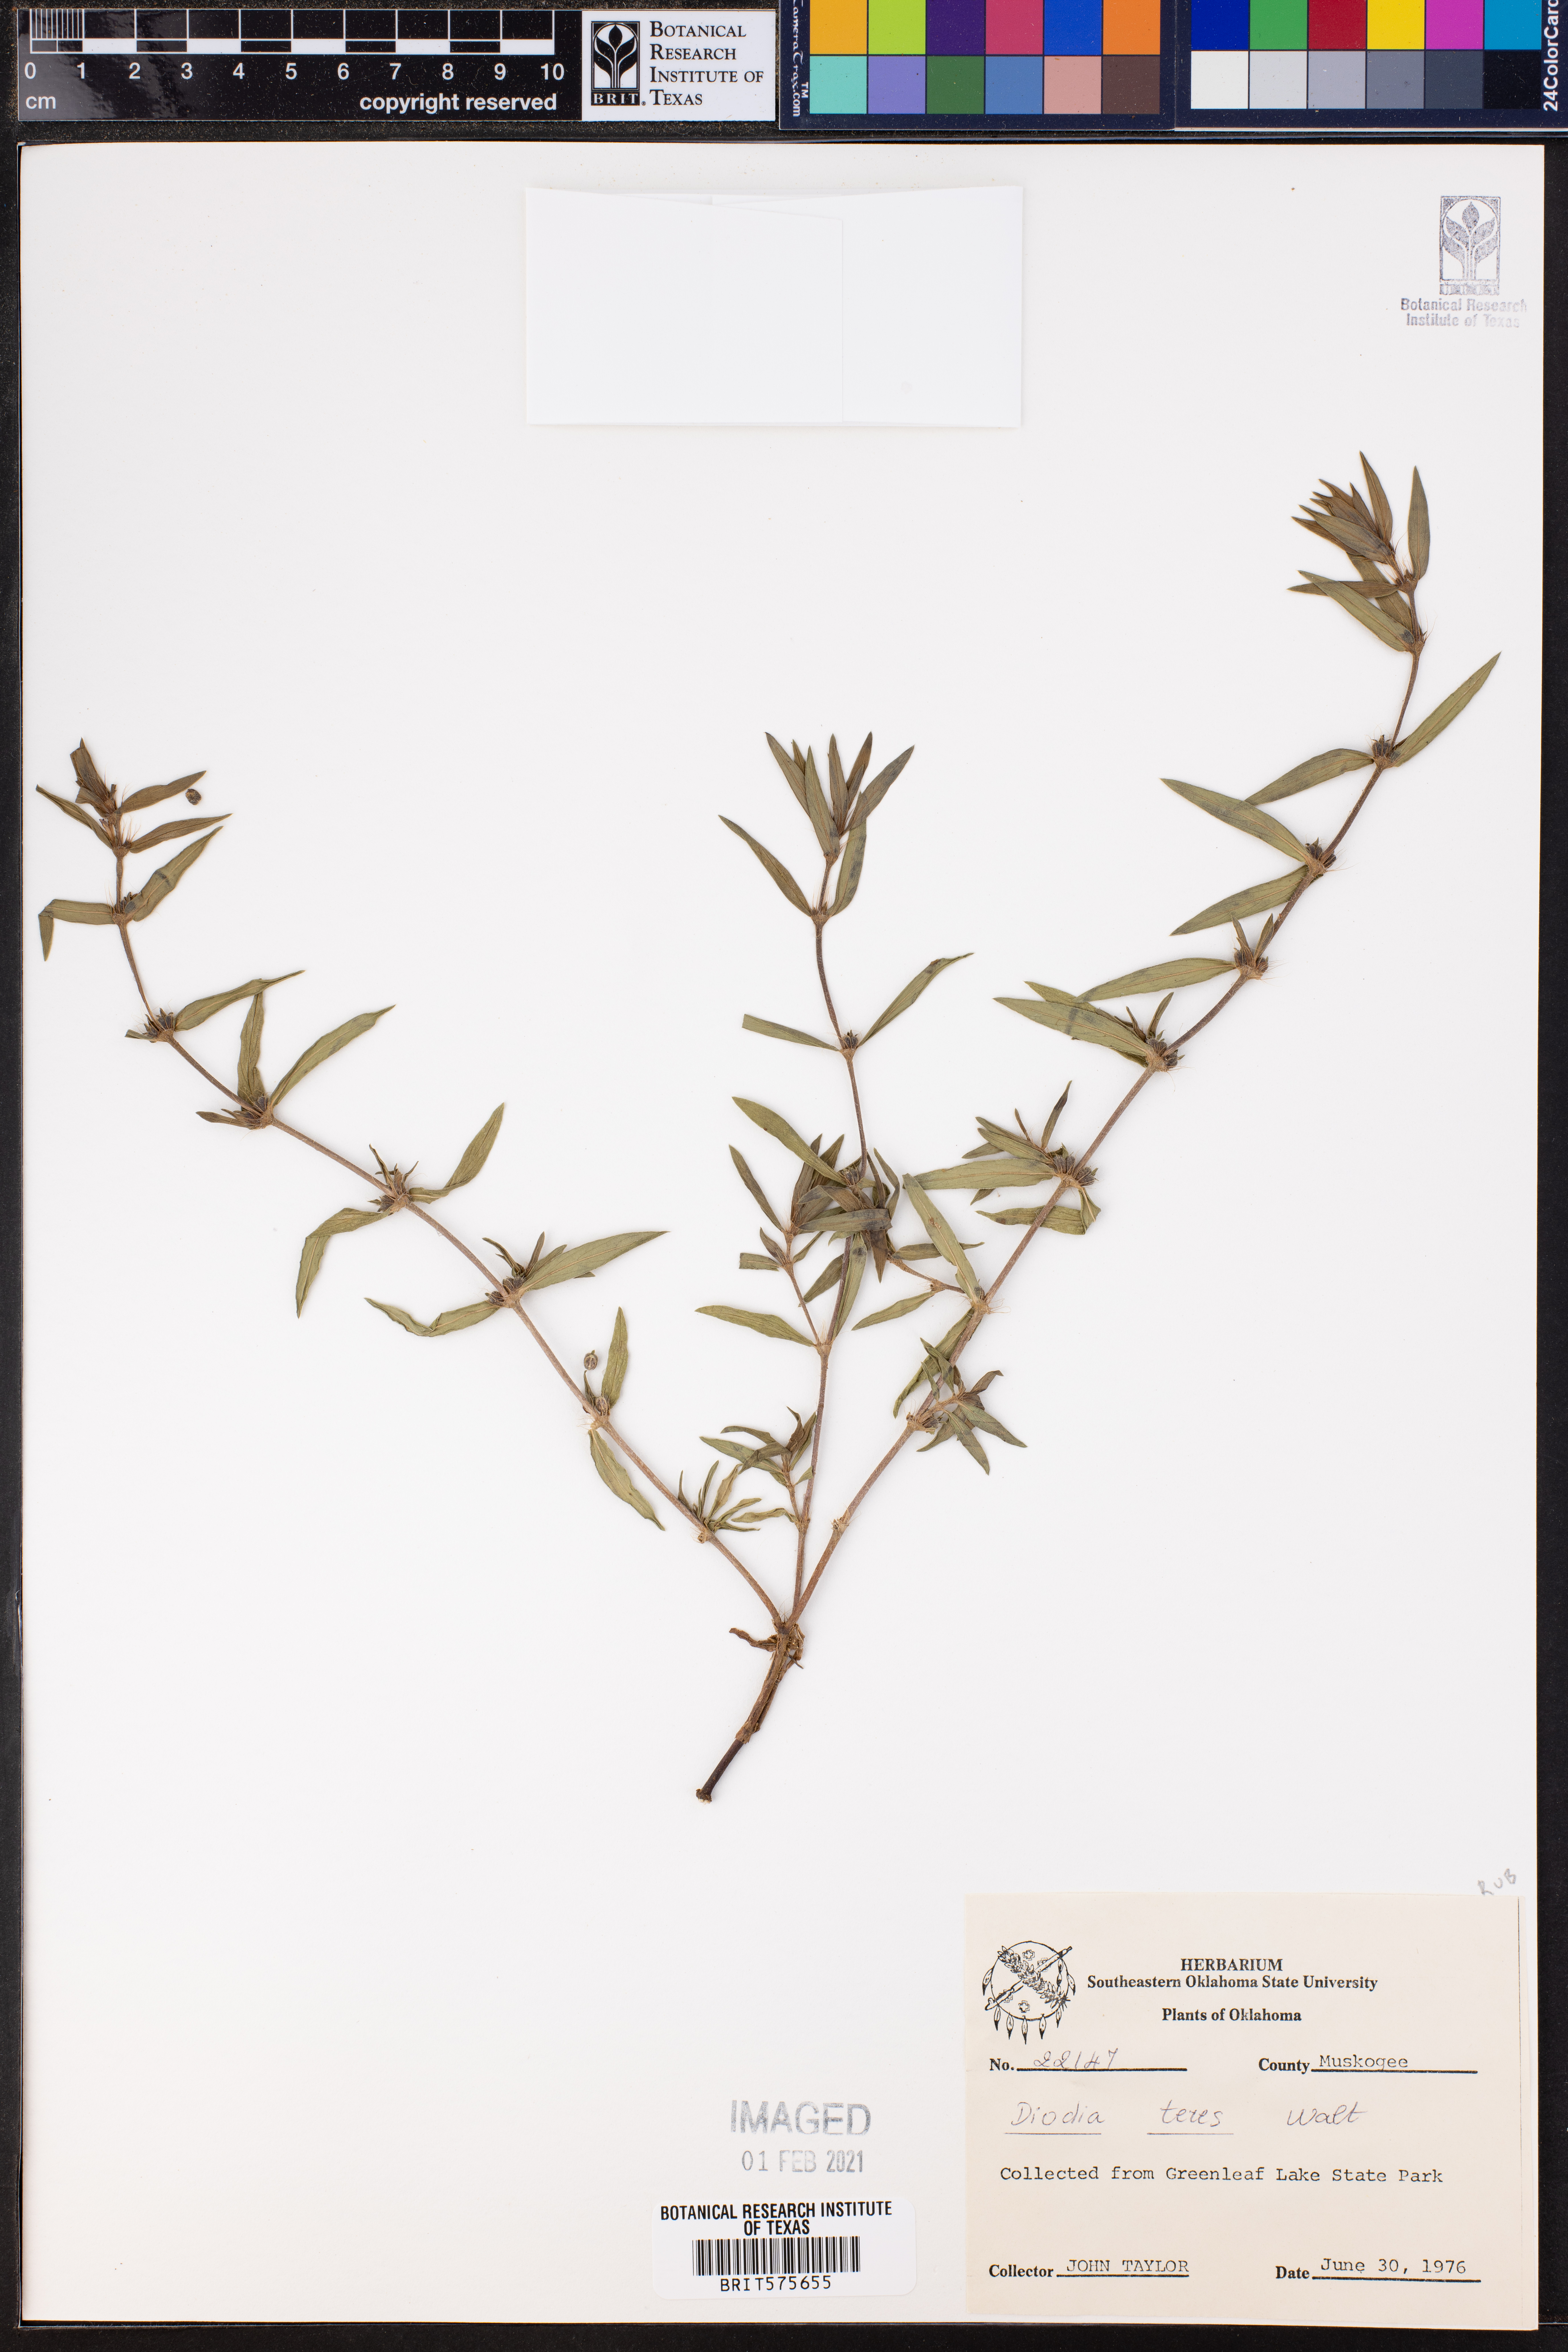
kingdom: Plantae
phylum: Tracheophyta
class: Magnoliopsida
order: Gentianales
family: Rubiaceae
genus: Hexasepalum
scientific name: Hexasepalum teres
